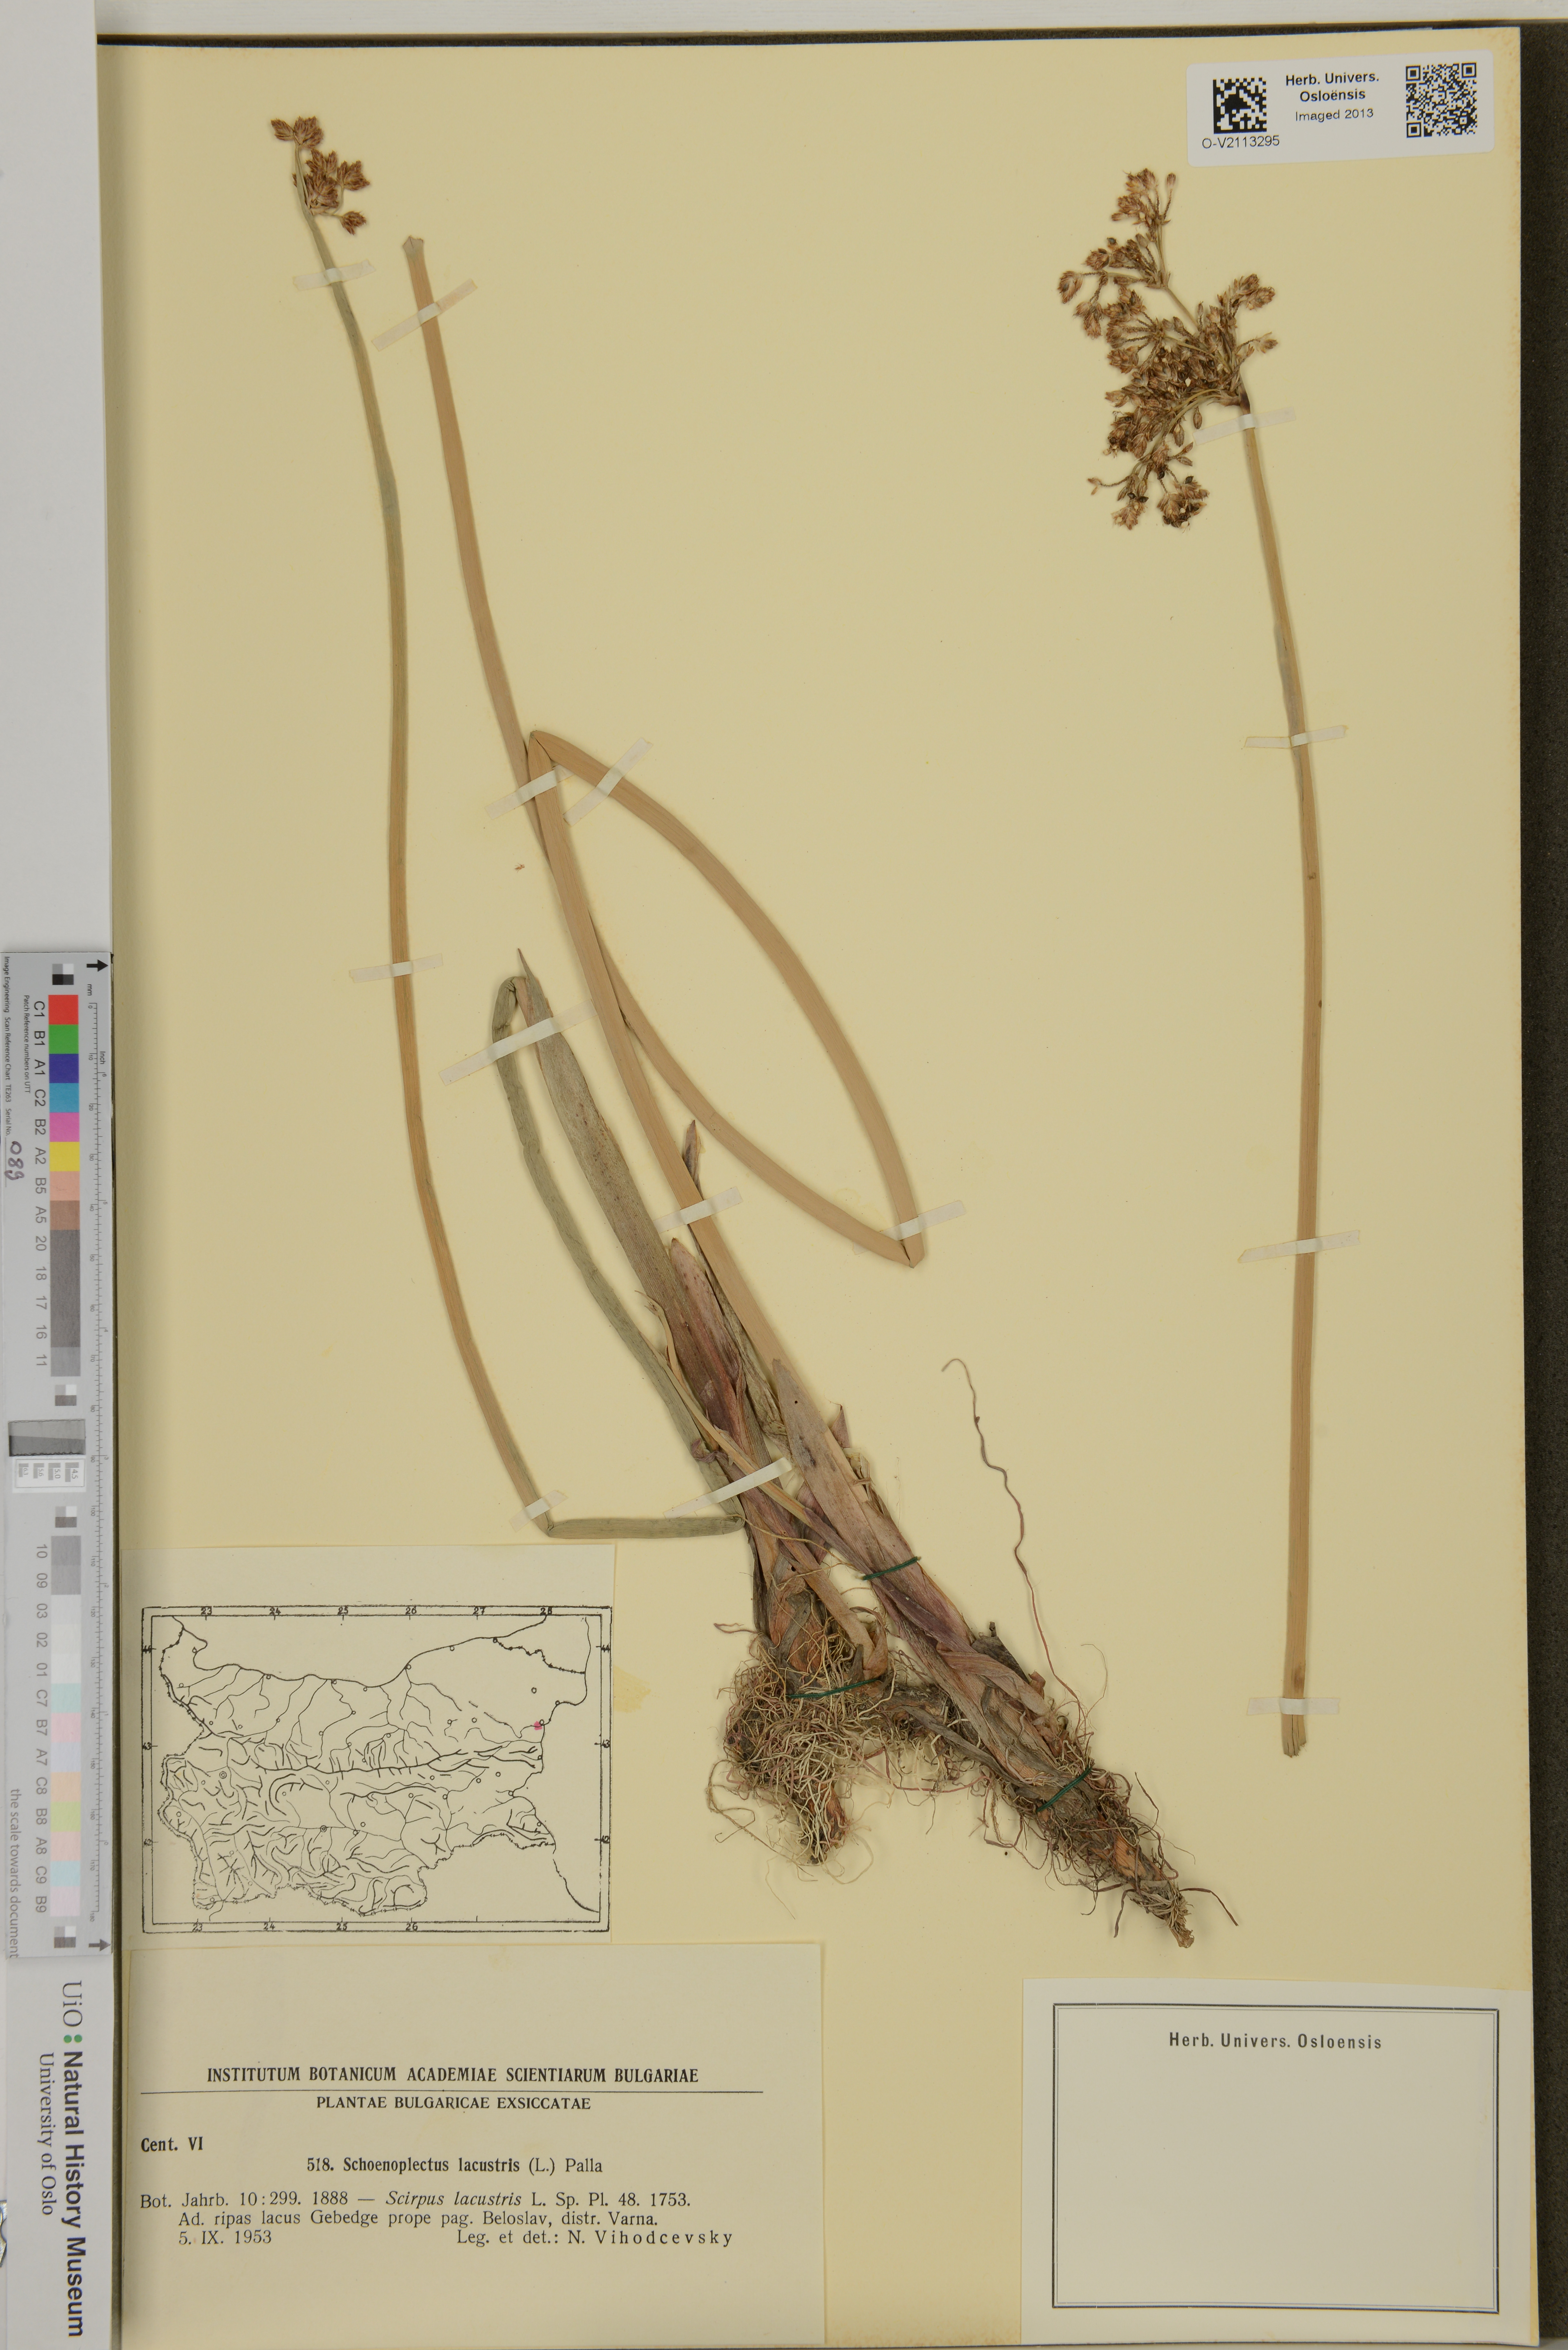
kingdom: Plantae
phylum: Tracheophyta
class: Liliopsida
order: Poales
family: Cyperaceae
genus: Schoenoplectus
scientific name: Schoenoplectus lacustris
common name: Common club-rush
